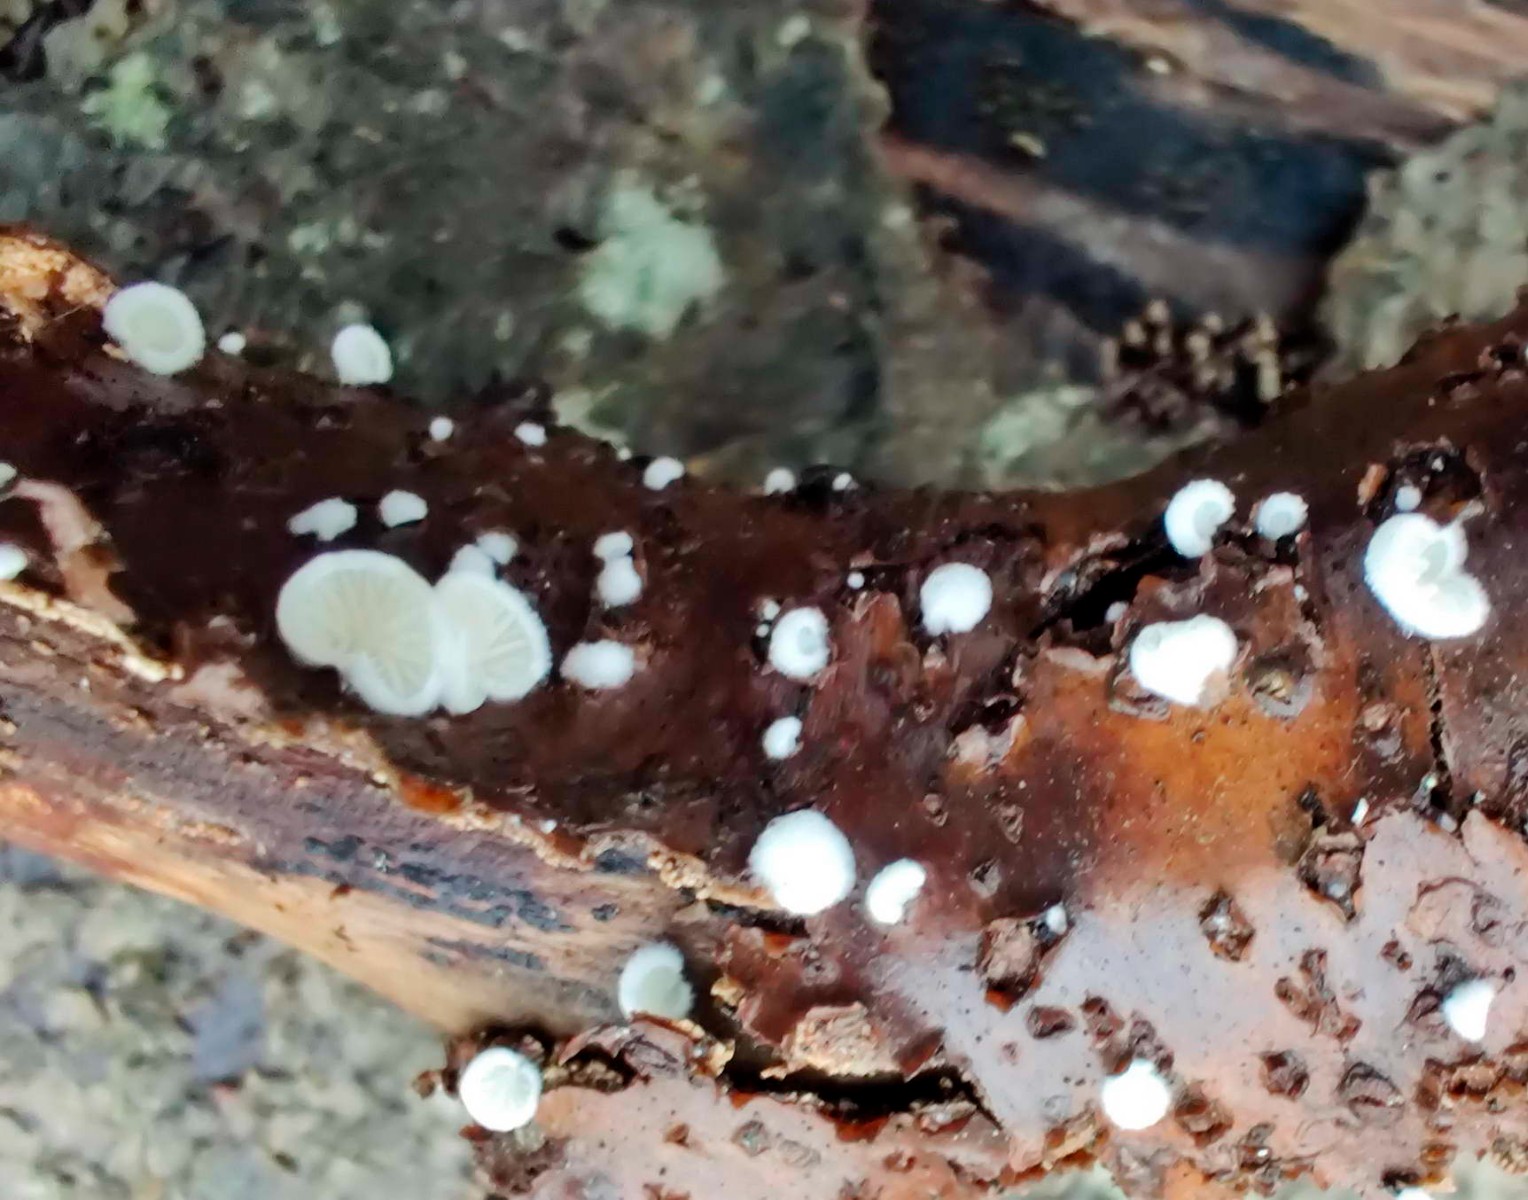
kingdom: Fungi
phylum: Basidiomycota
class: Agaricomycetes
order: Agaricales
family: Entolomataceae
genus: Clitopilus
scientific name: Clitopilus hobsonii
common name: Miller's oysterling
